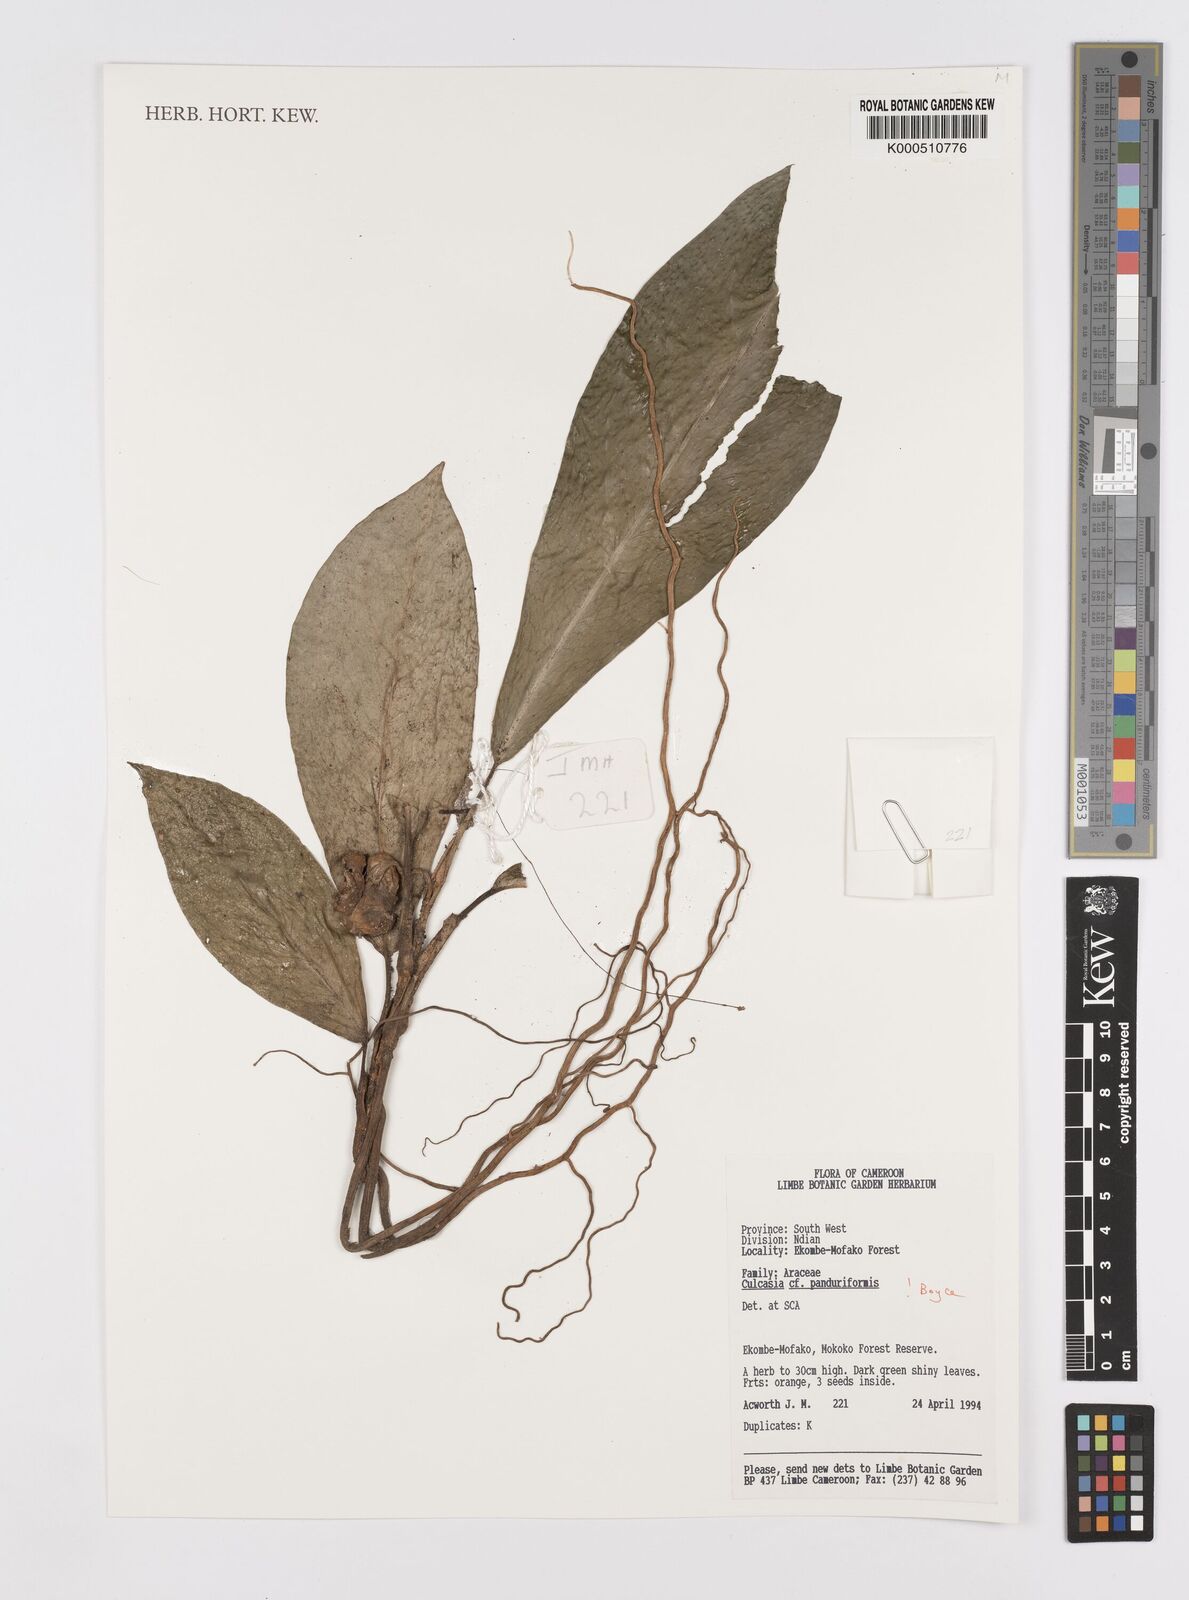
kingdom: Plantae
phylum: Tracheophyta
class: Liliopsida
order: Alismatales
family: Araceae
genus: Culcasia
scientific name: Culcasia panduriformis
